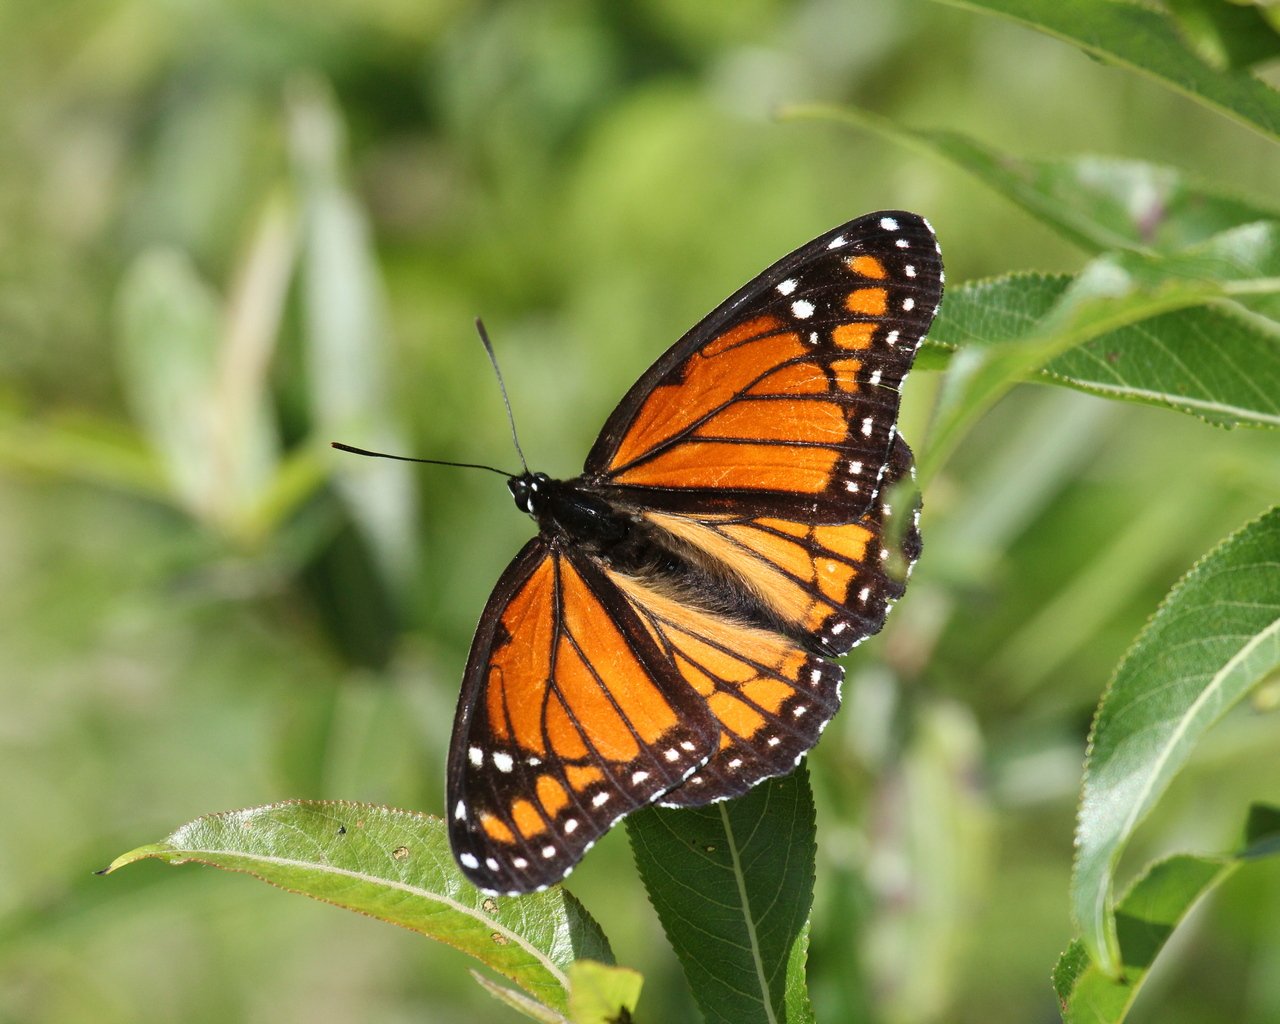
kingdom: Animalia
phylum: Arthropoda
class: Insecta
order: Lepidoptera
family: Nymphalidae
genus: Limenitis
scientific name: Limenitis archippus
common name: Viceroy
